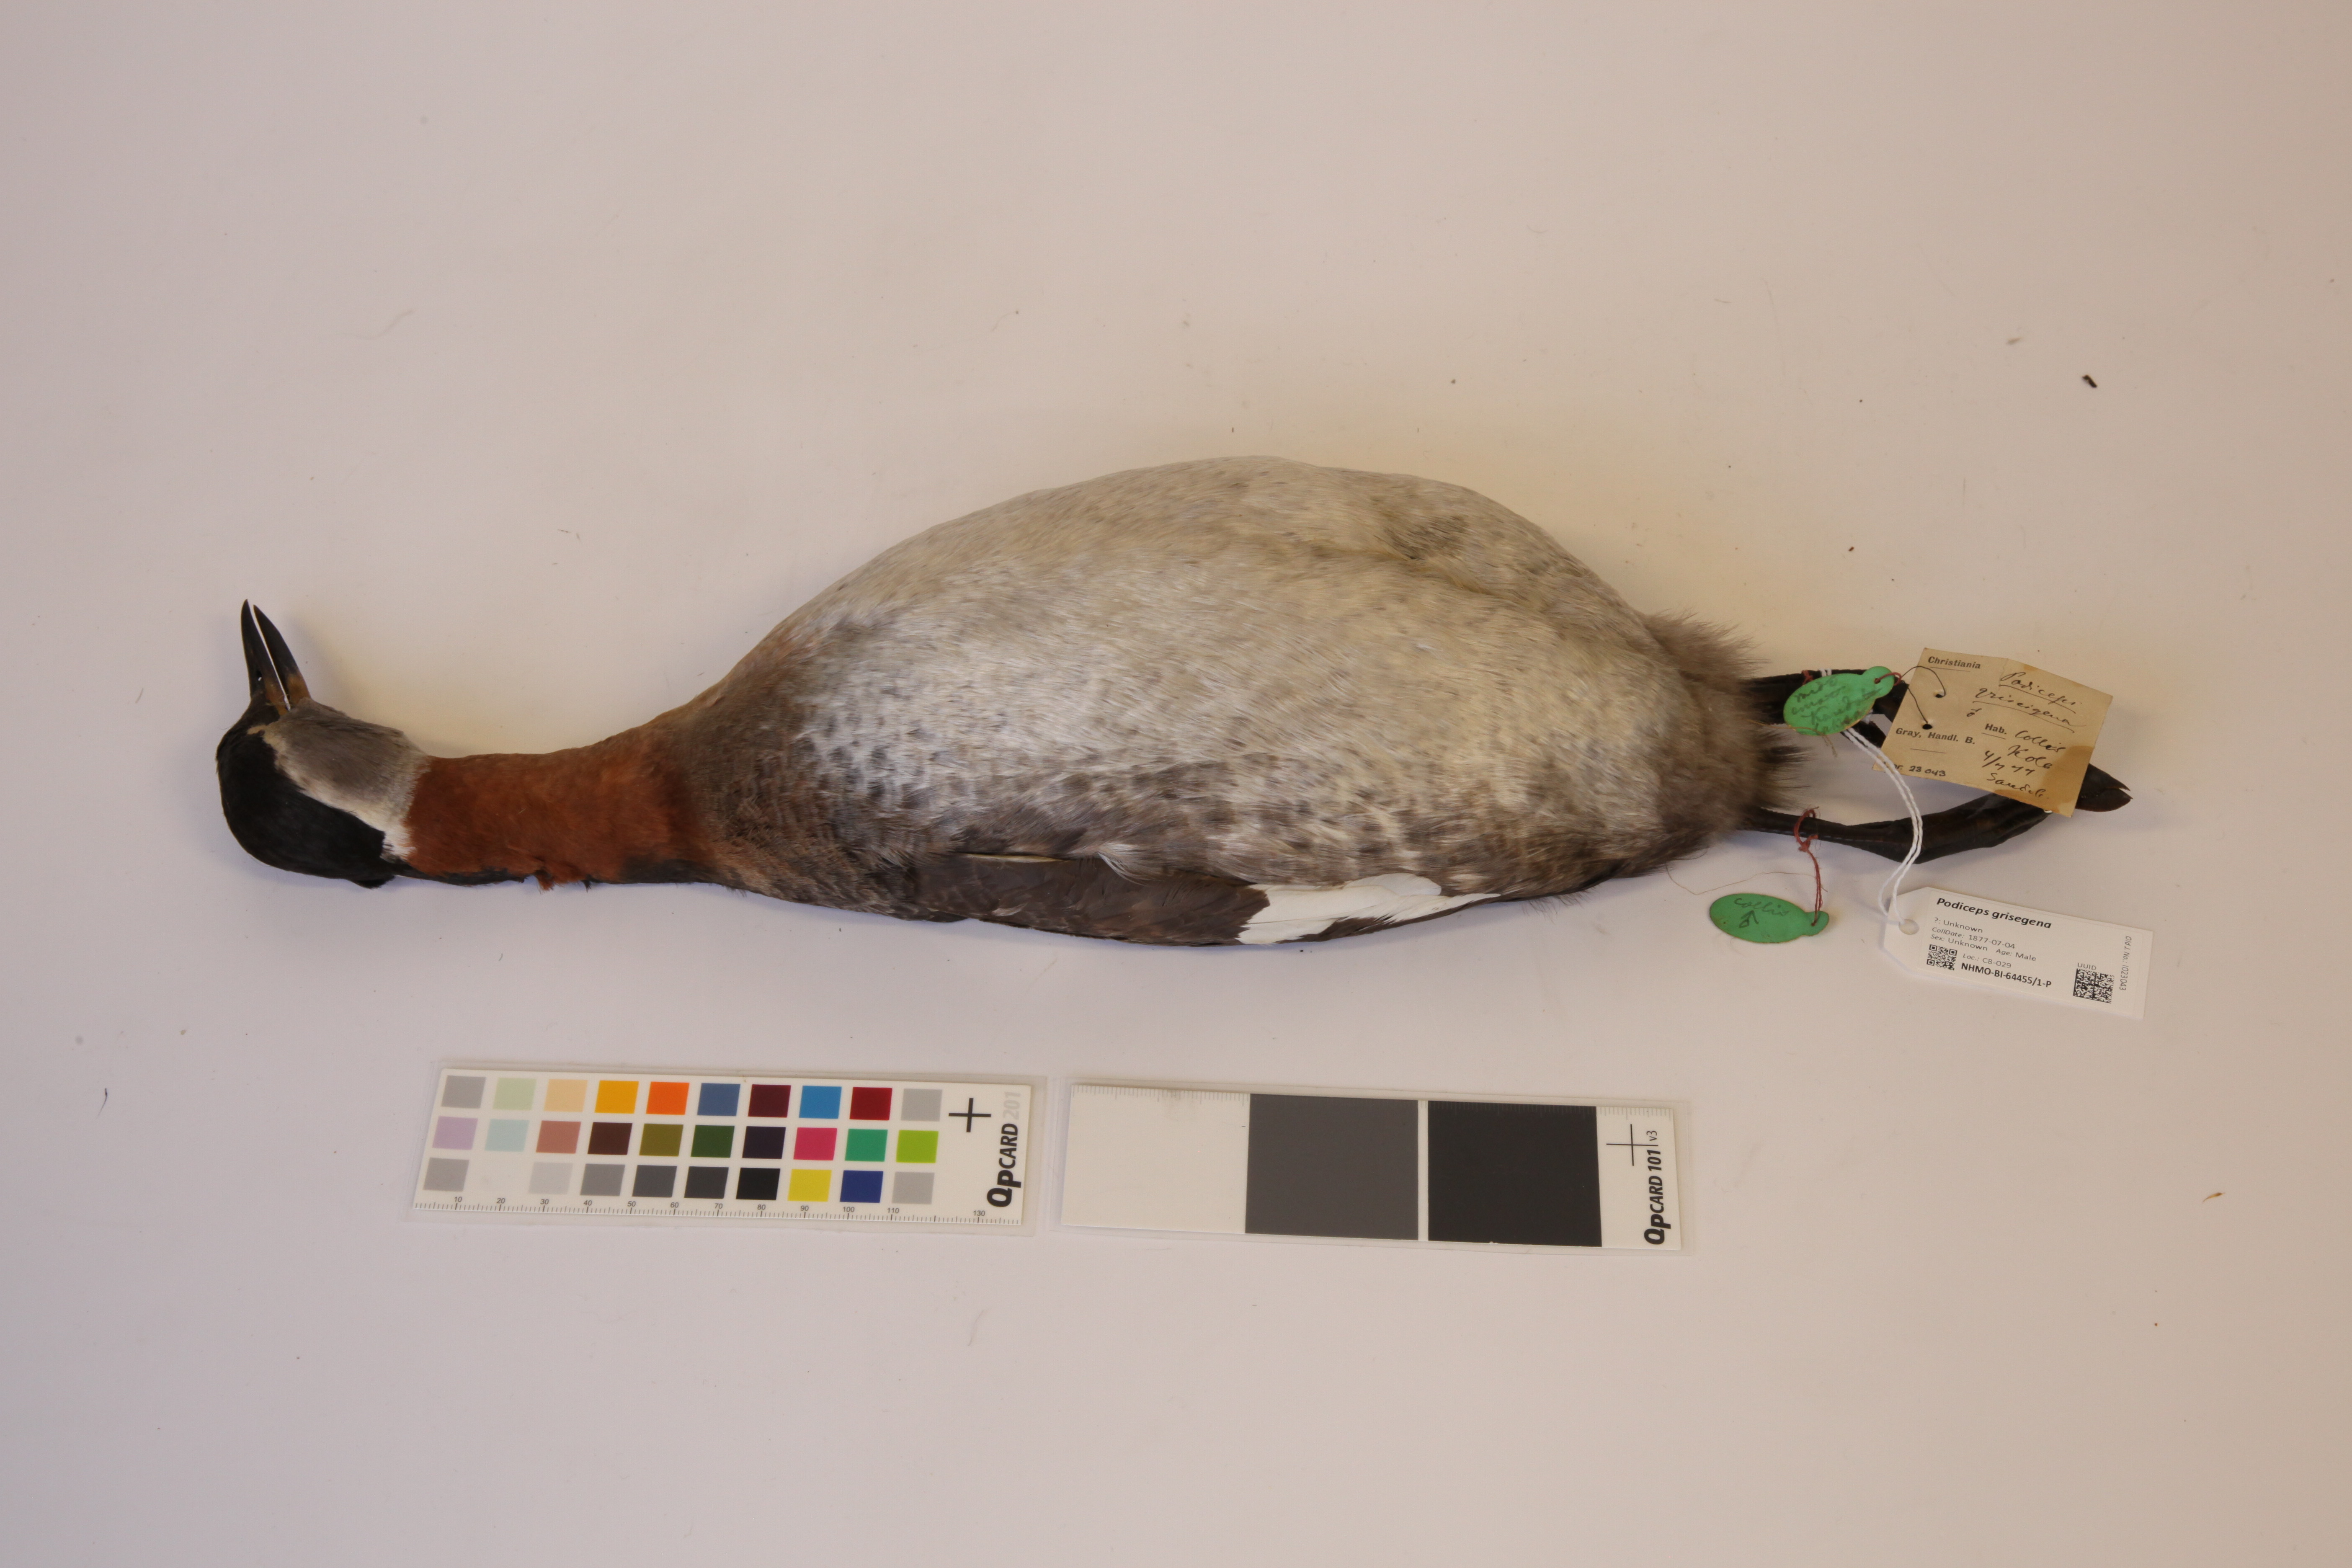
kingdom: Animalia
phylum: Chordata
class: Aves
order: Podicipediformes
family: Podicipedidae
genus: Podiceps
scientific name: Podiceps grisegena
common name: Red-necked grebe
